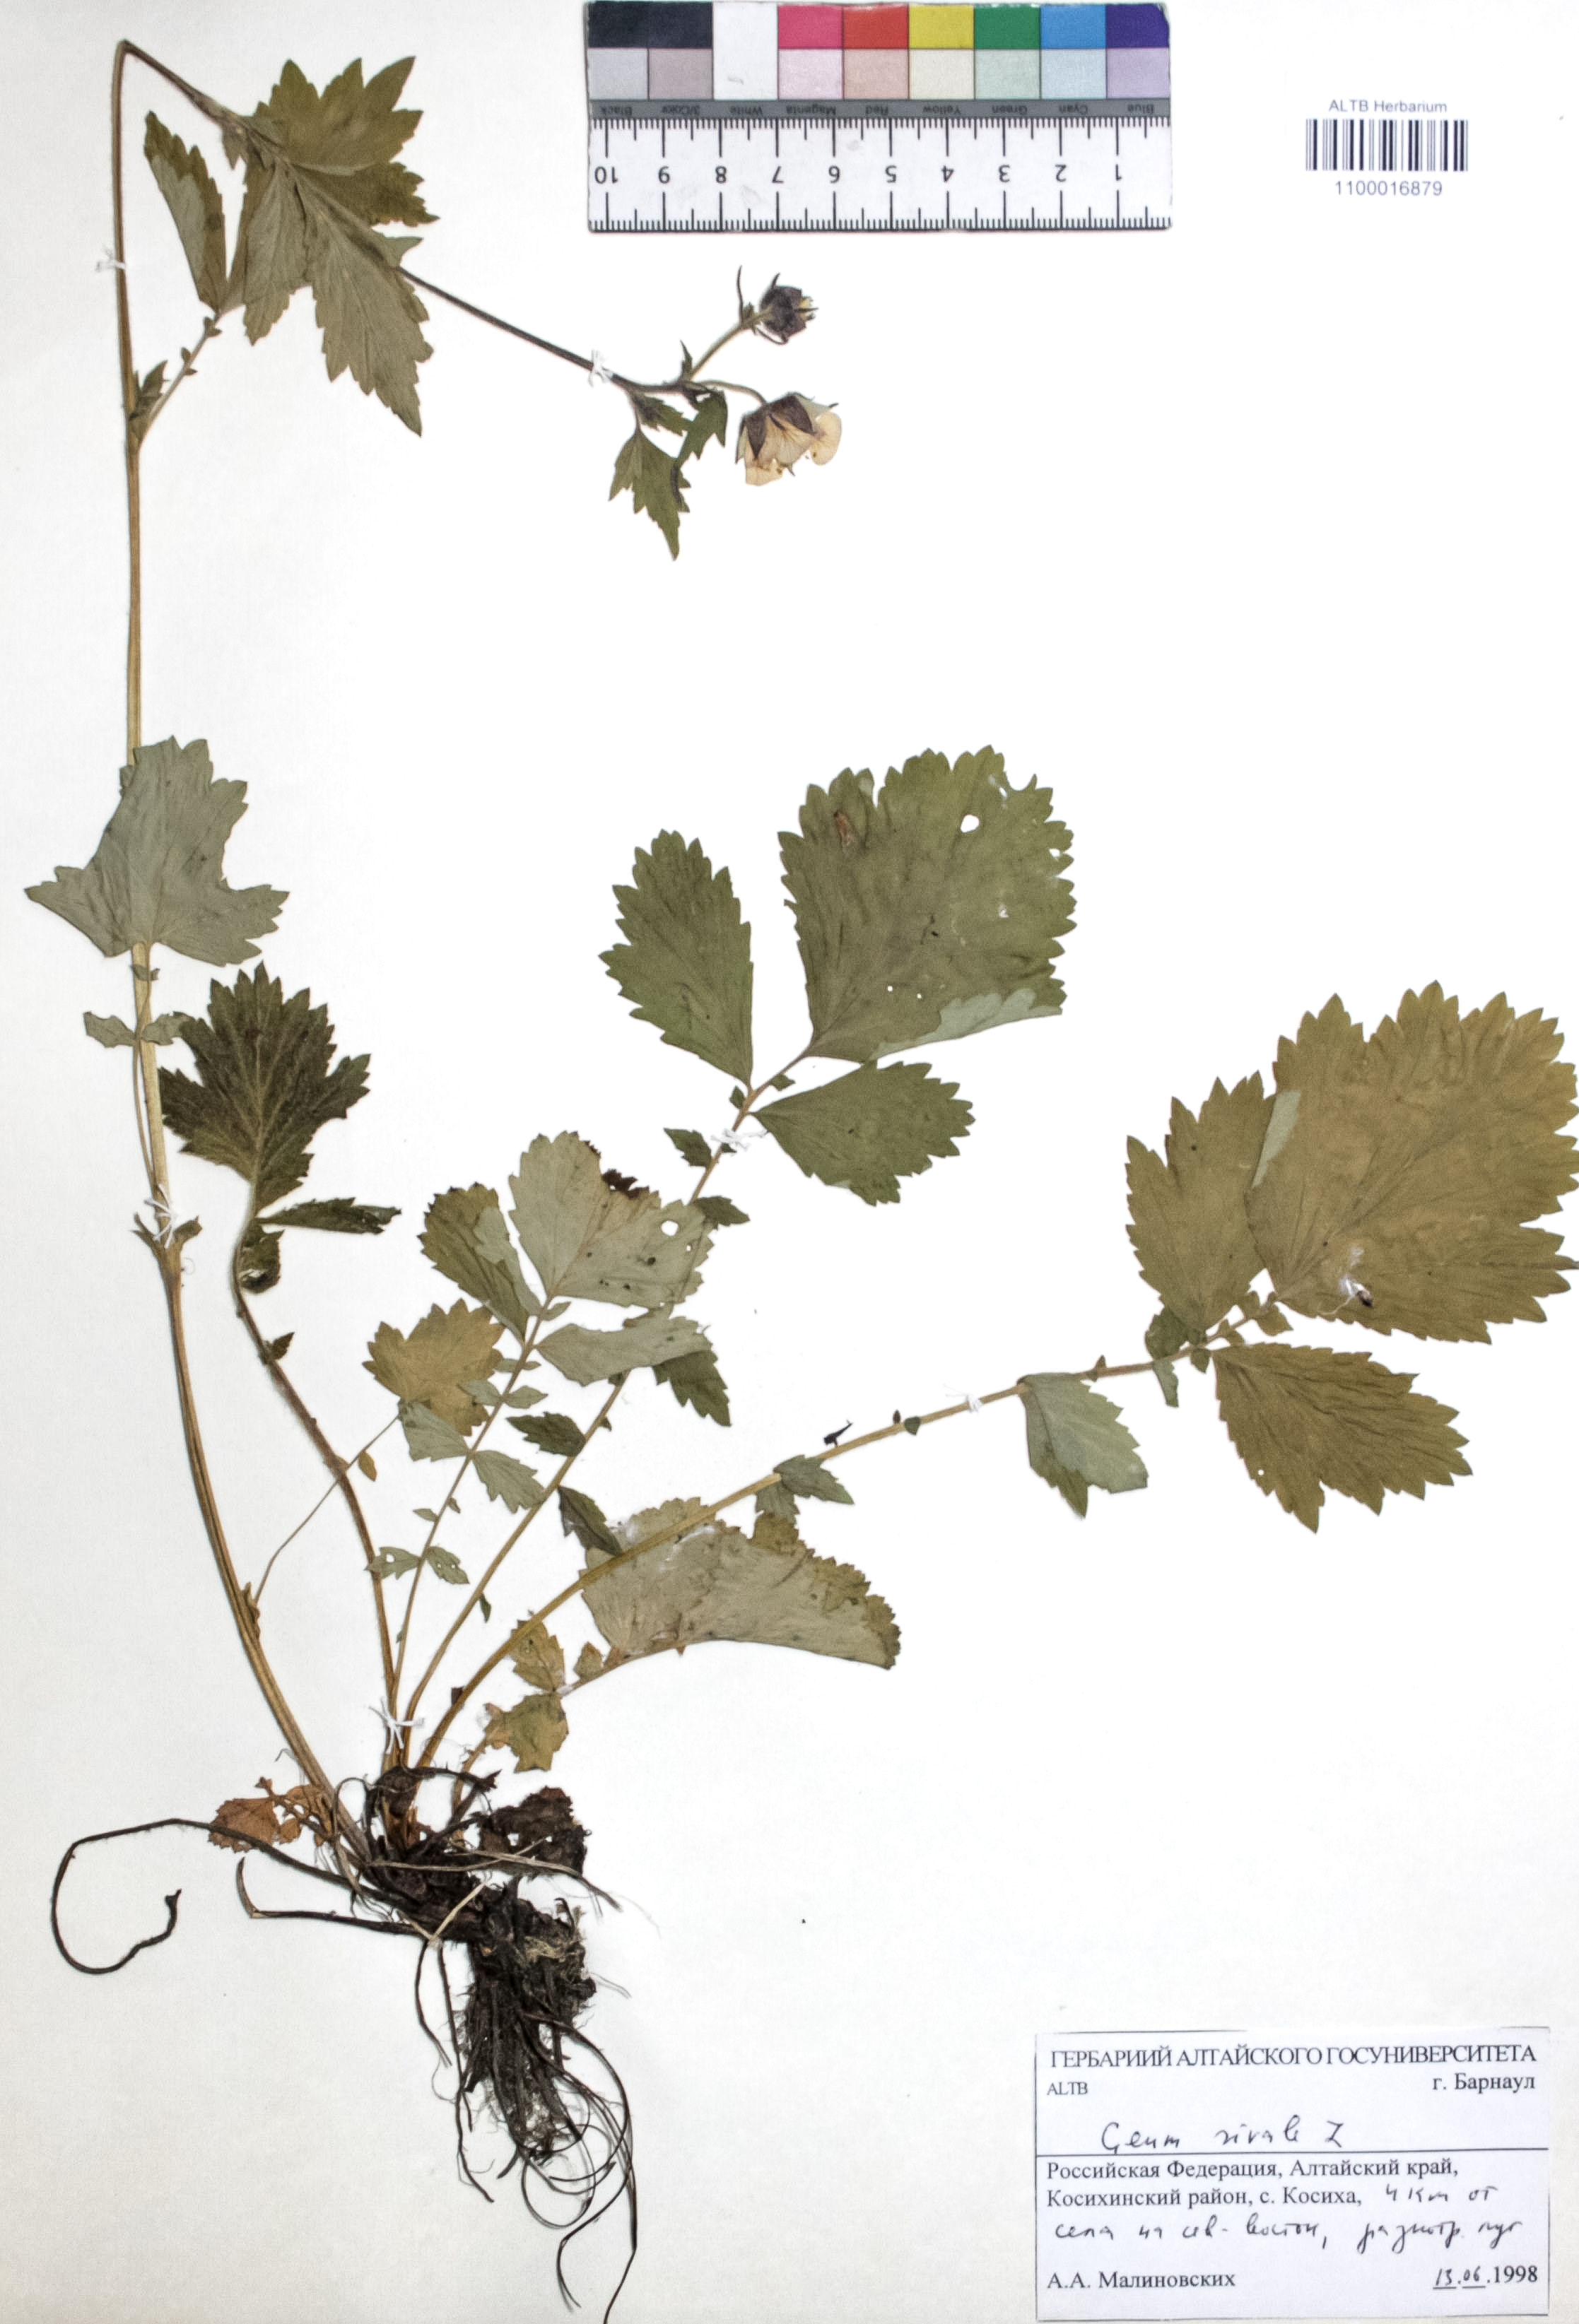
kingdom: Plantae
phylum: Tracheophyta
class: Magnoliopsida
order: Rosales
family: Rosaceae
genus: Geum
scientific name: Geum rivale
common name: Water avens
